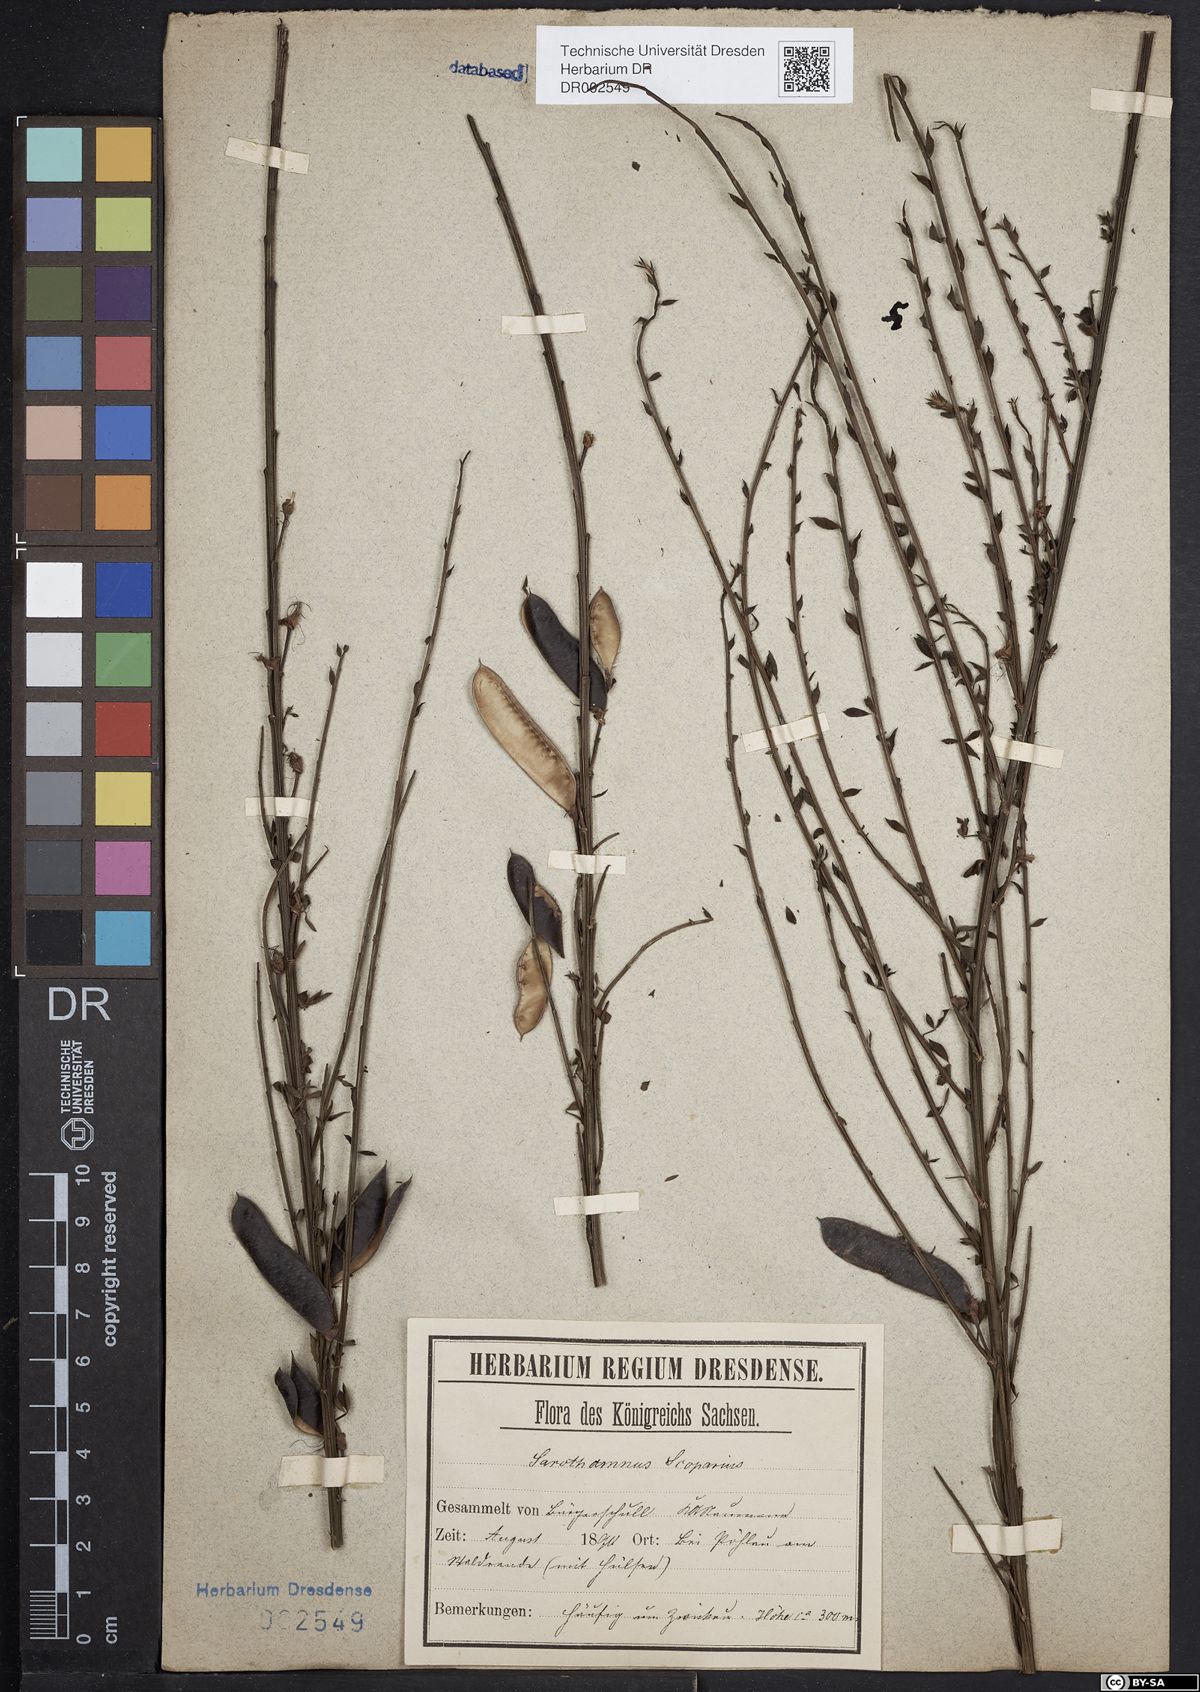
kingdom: Plantae
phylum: Tracheophyta
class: Magnoliopsida
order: Fabales
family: Fabaceae
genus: Cytisus
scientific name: Cytisus scoparius
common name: Scotch broom
